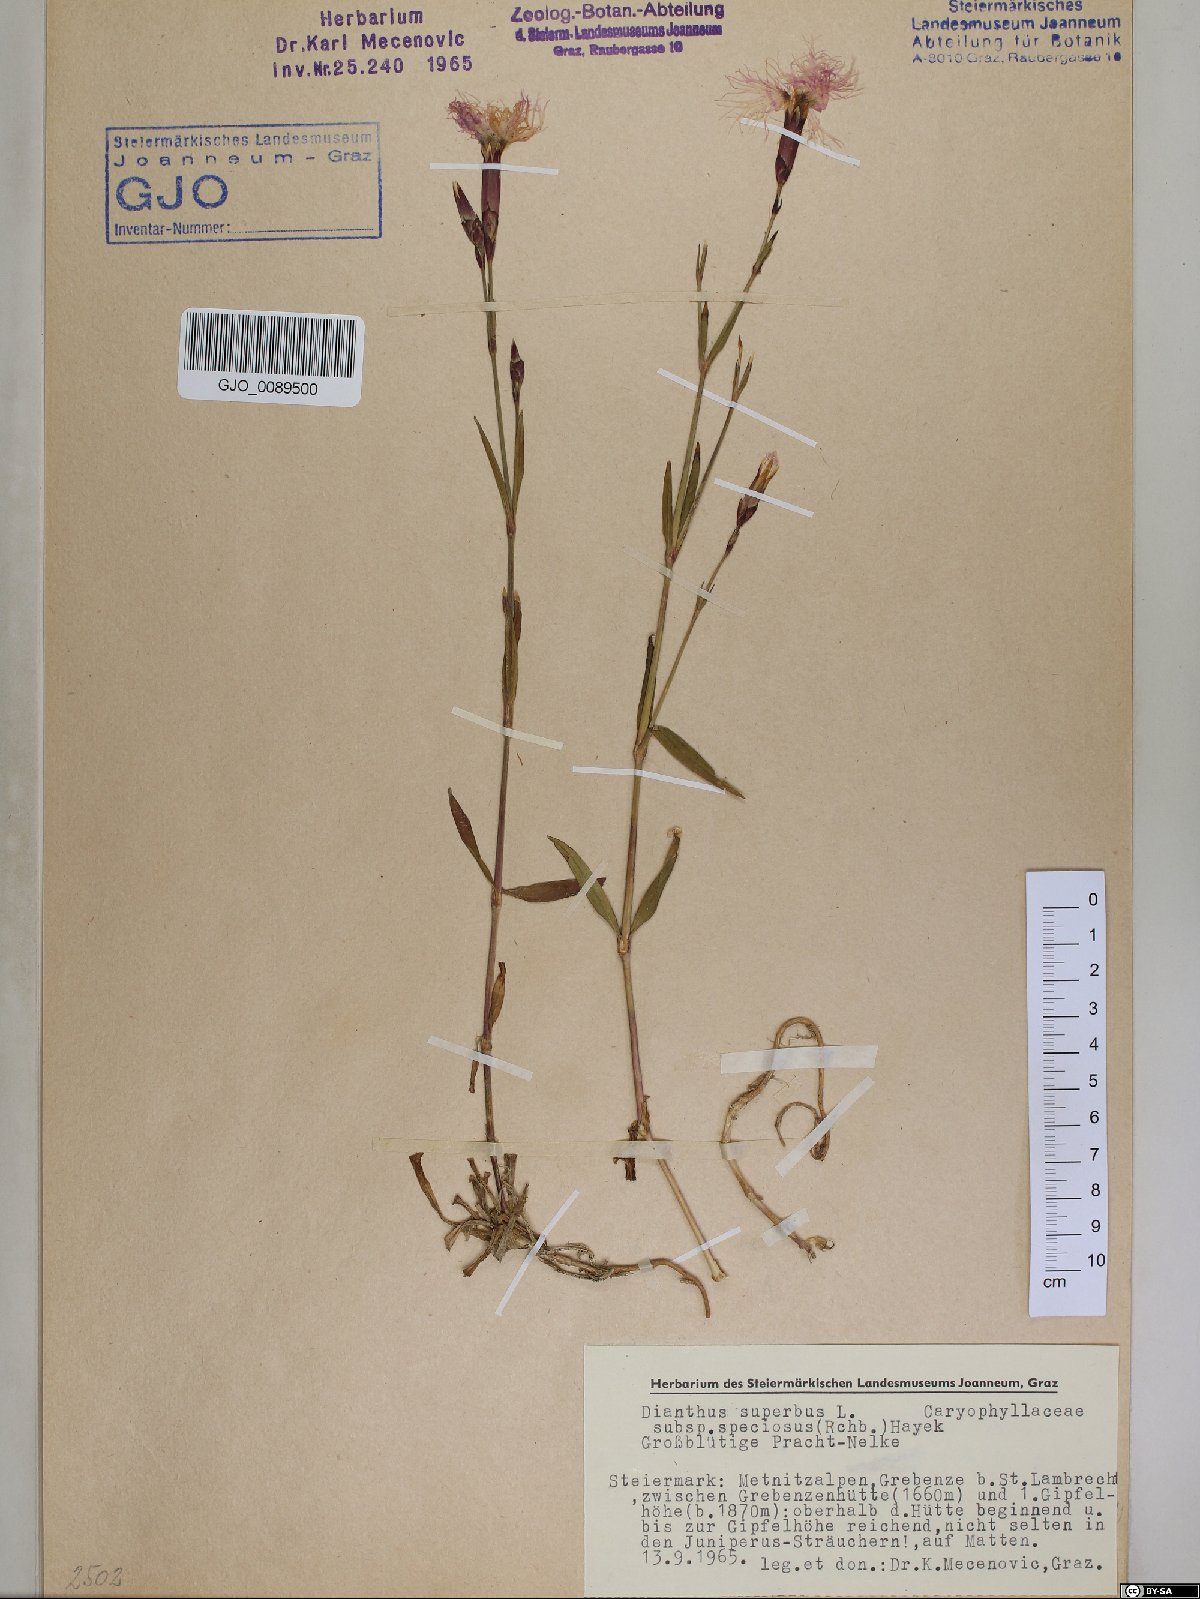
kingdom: Plantae
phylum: Tracheophyta
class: Magnoliopsida
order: Caryophyllales
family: Caryophyllaceae
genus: Dianthus
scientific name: Dianthus superbus
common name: Fringed pink
